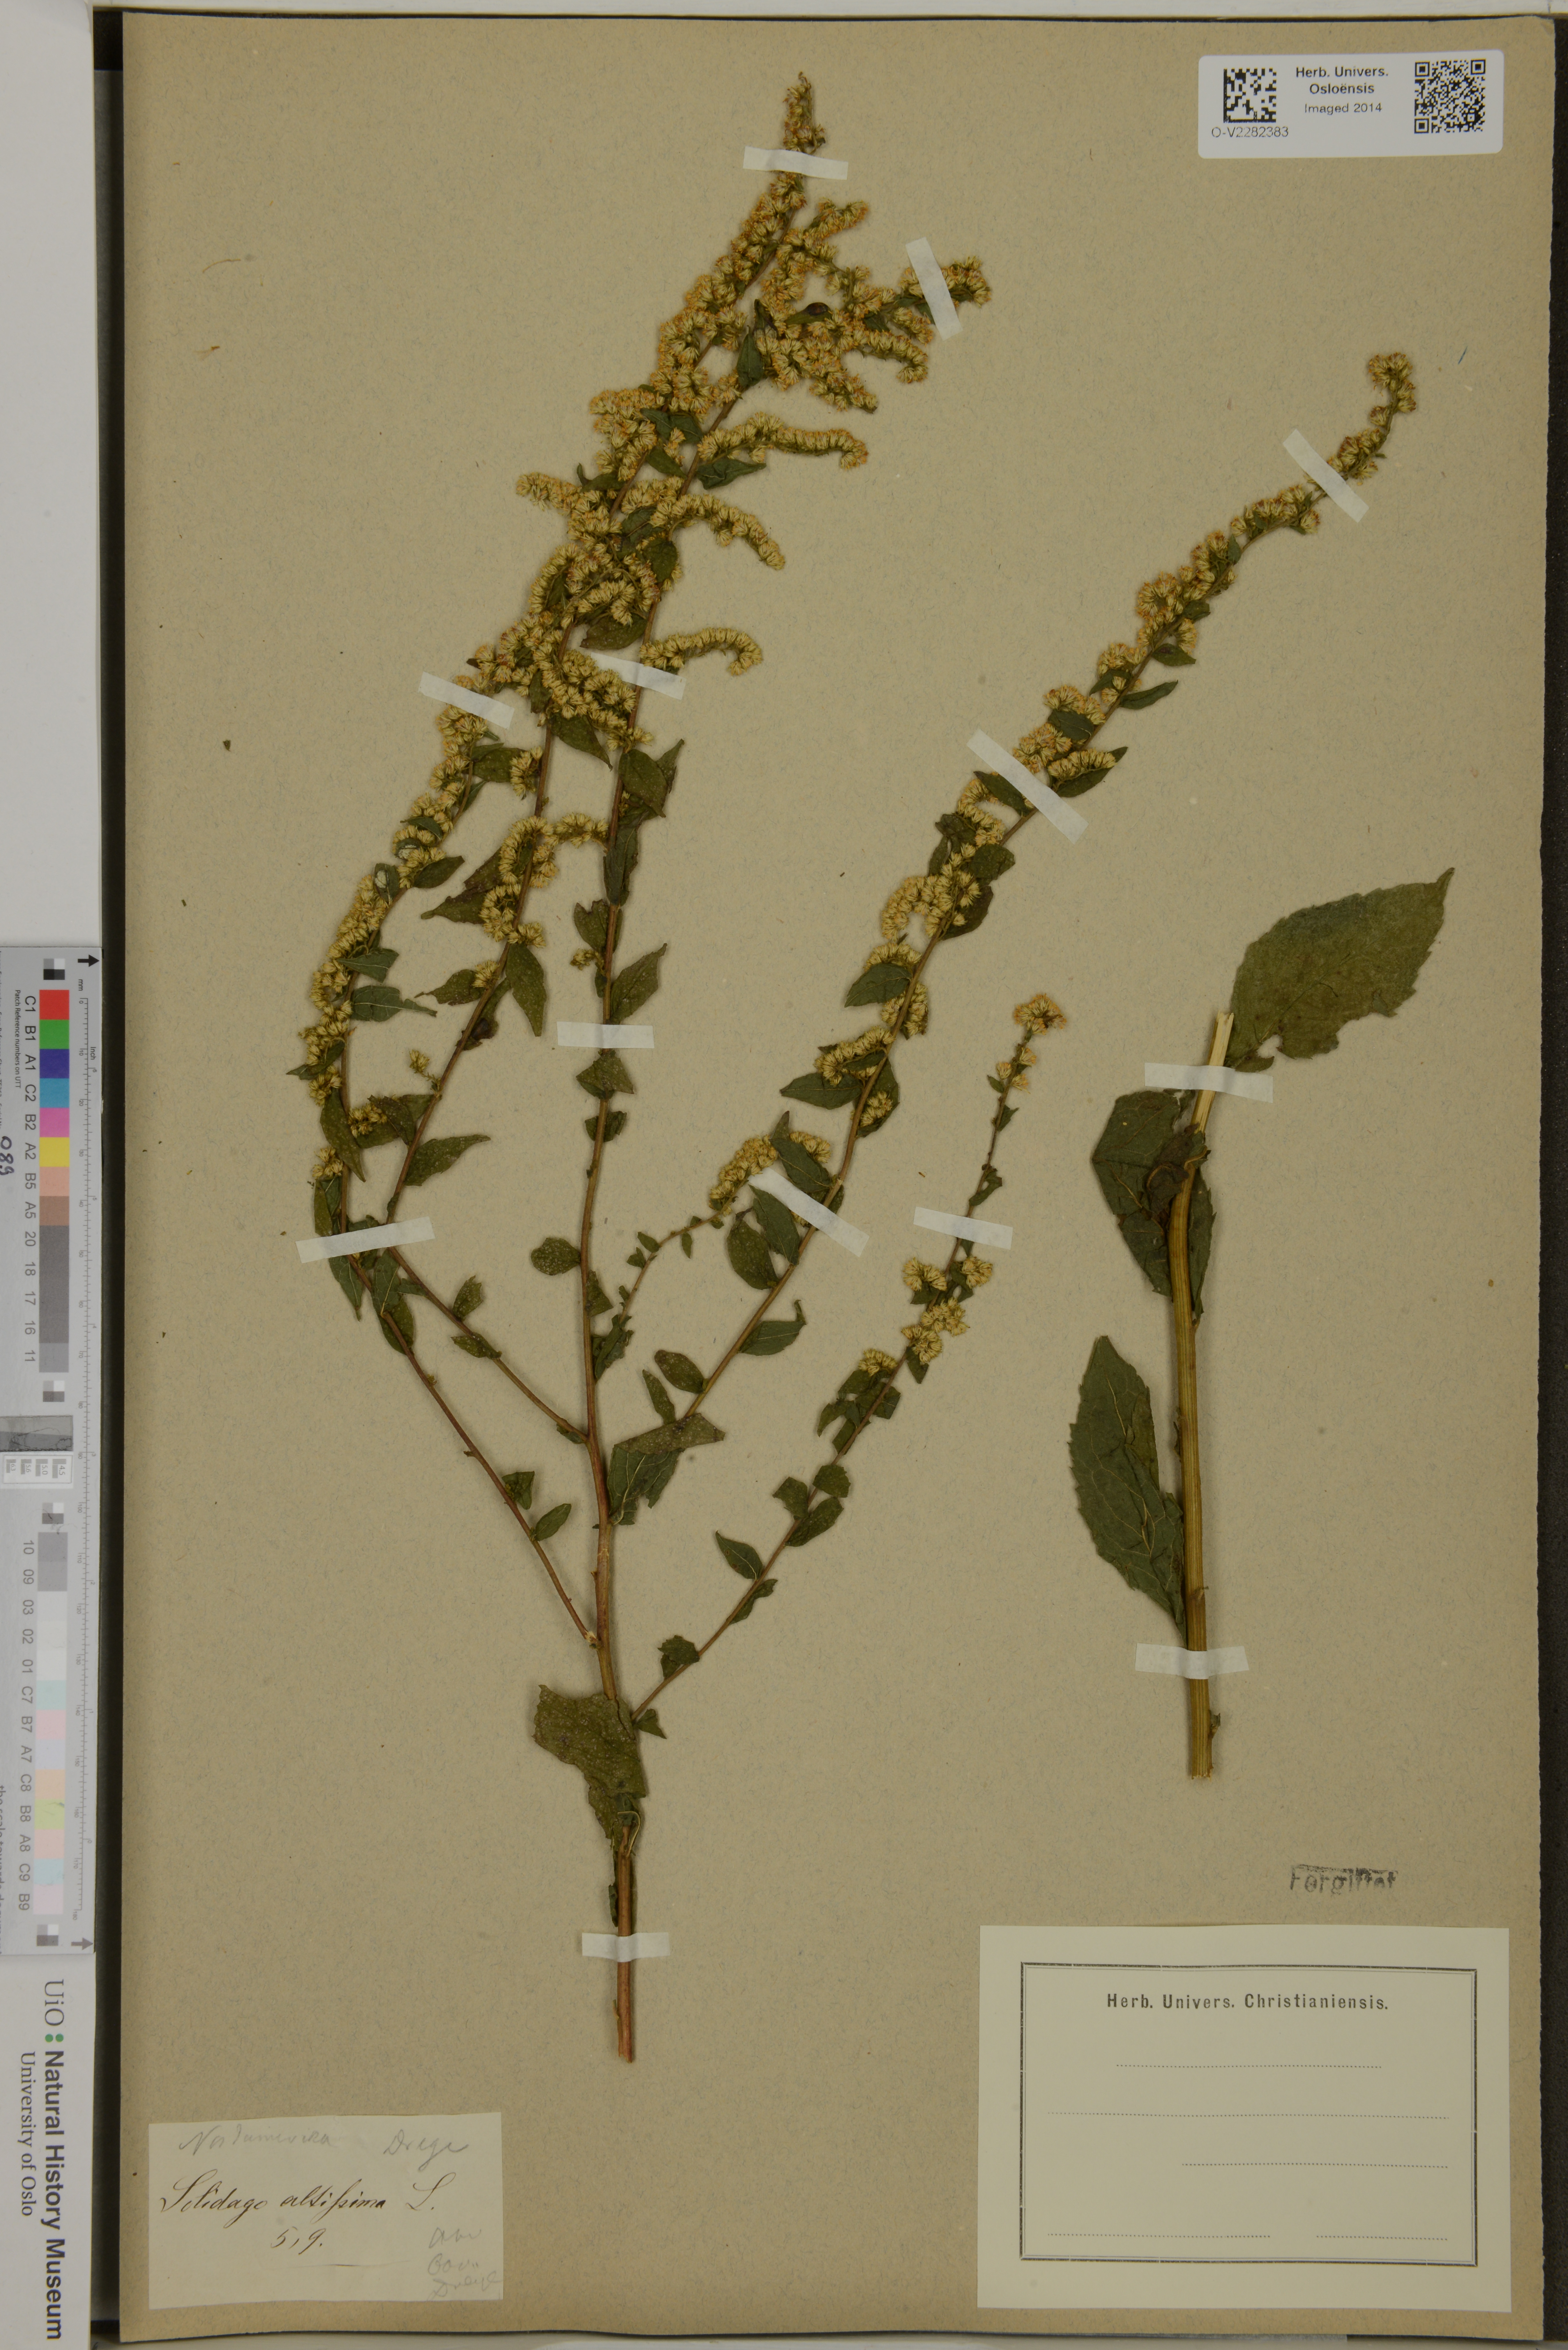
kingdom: Plantae
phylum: Tracheophyta
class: Magnoliopsida
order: Asterales
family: Asteraceae
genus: Solidago
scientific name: Solidago rugosa
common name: Rough-stemmed goldenrod
